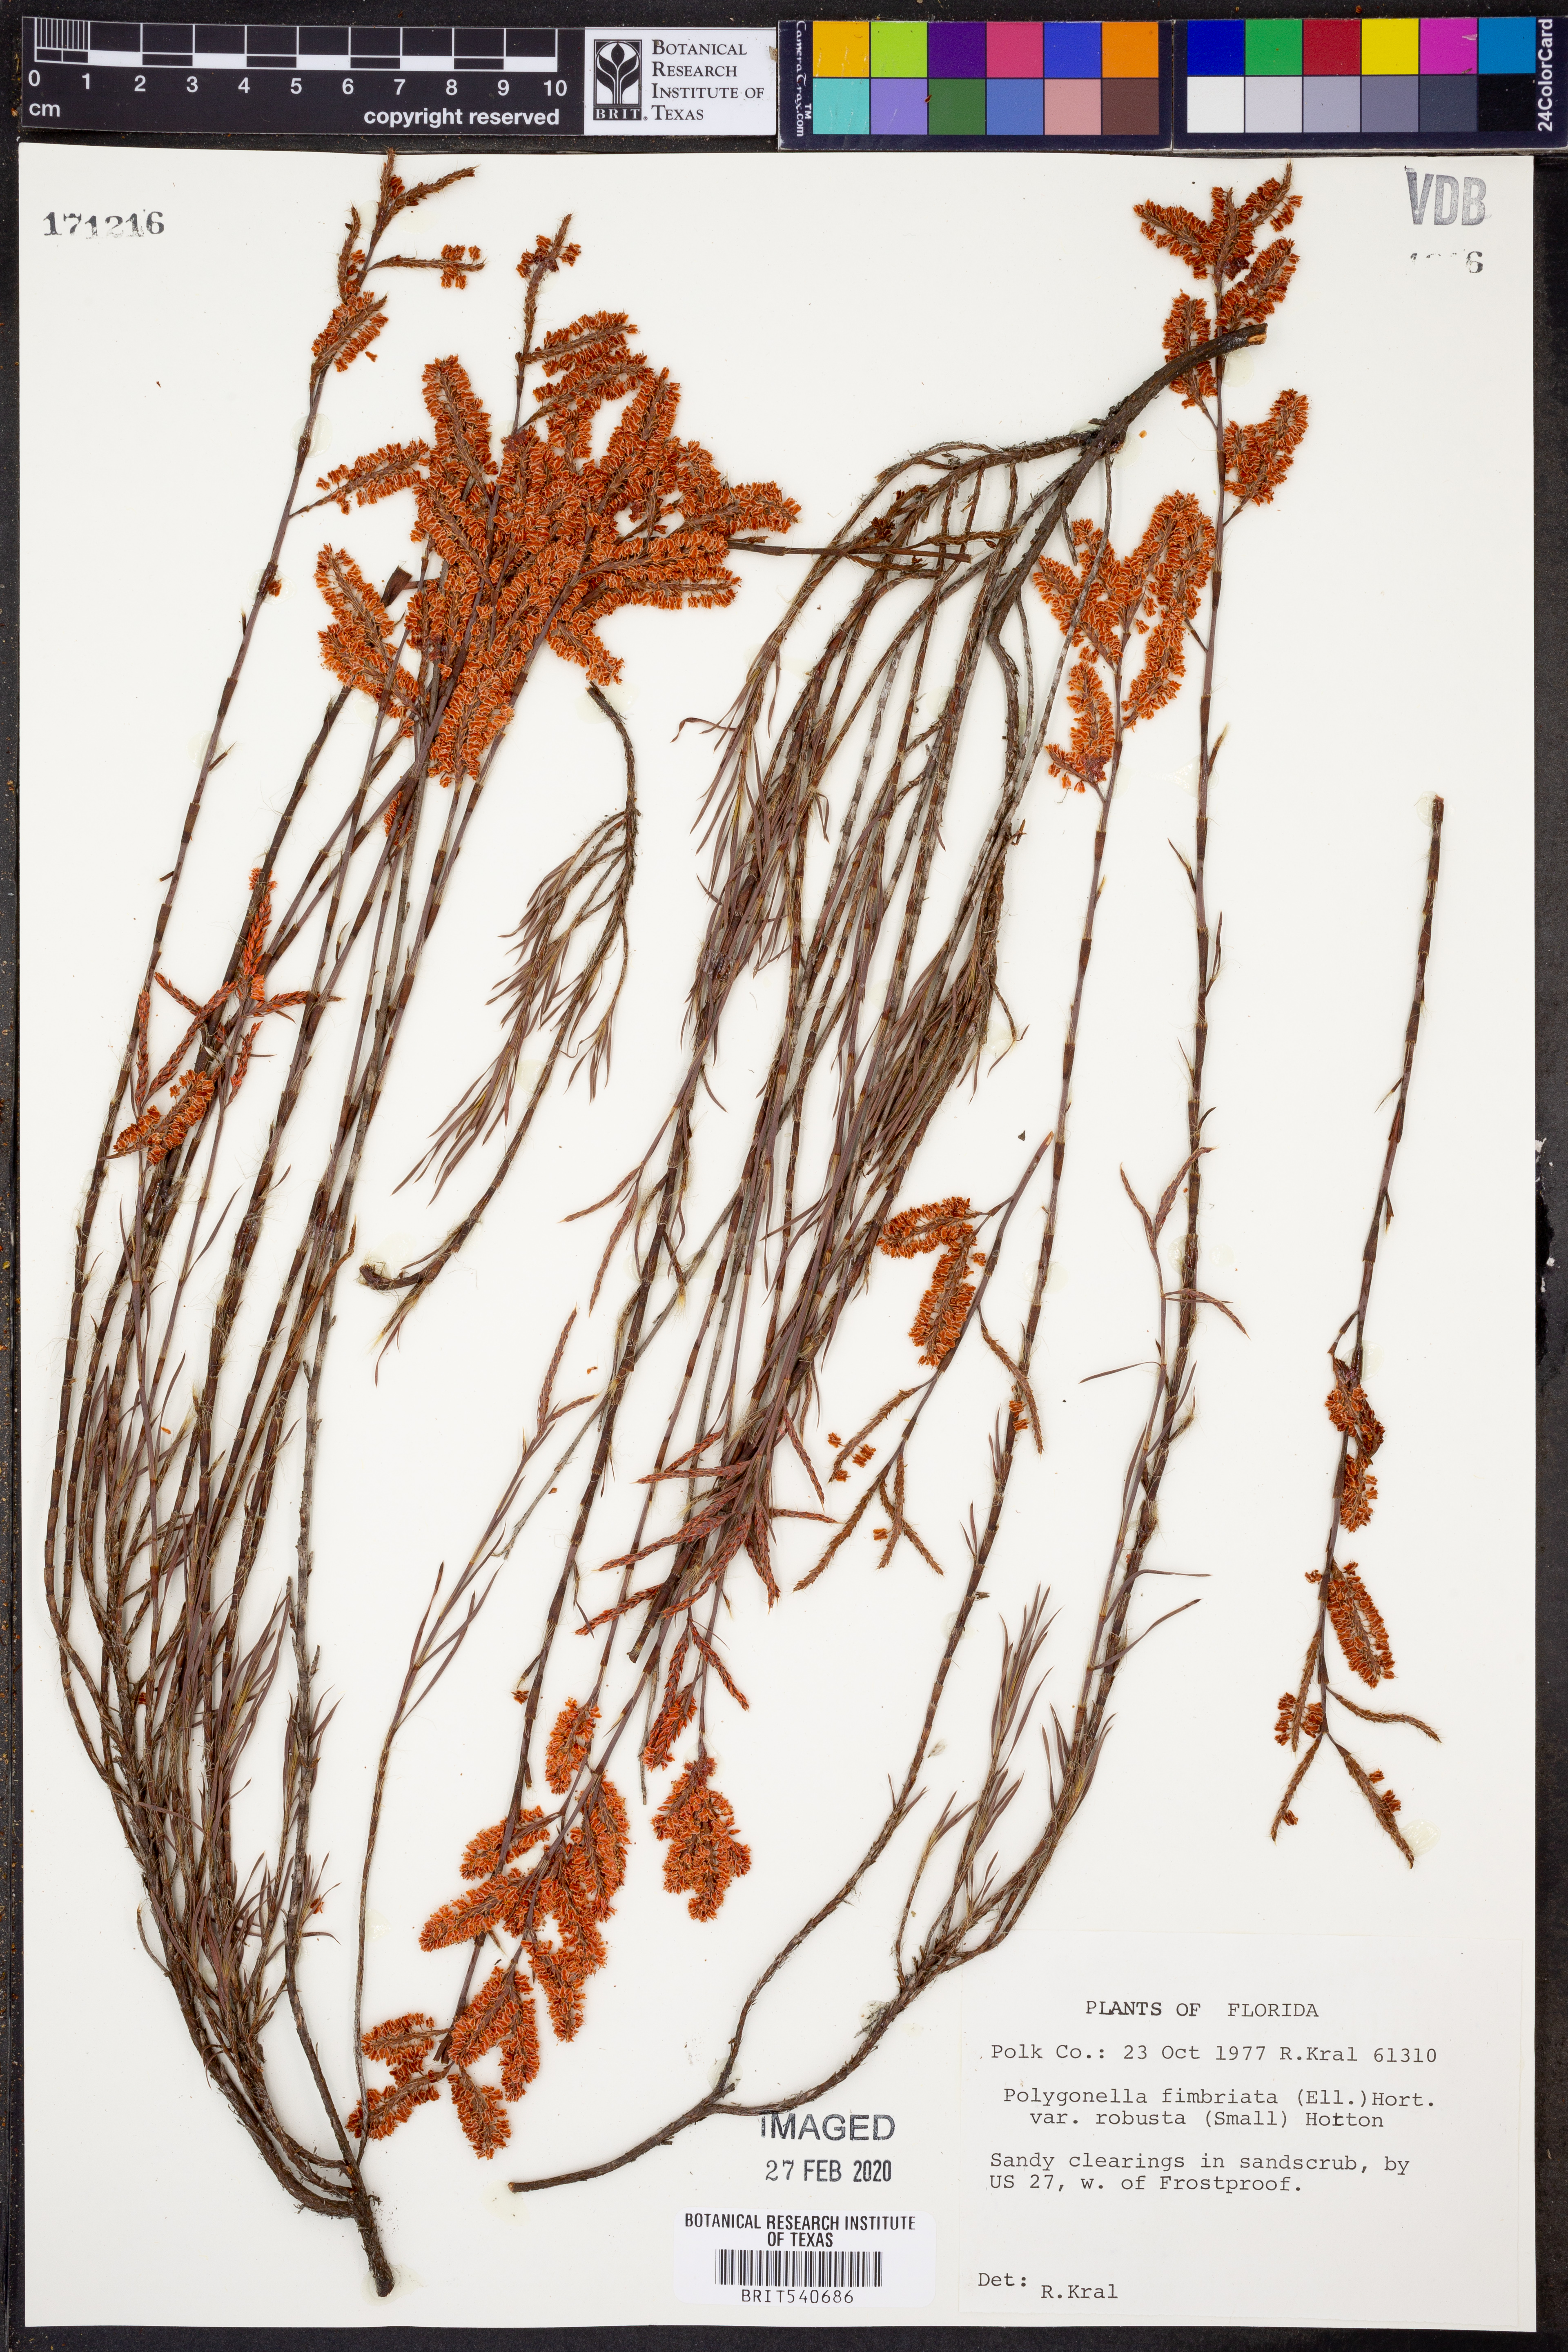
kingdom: Plantae
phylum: Tracheophyta
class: Magnoliopsida
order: Caryophyllales
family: Polygonaceae
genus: Polygonella
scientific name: Polygonella robusta
